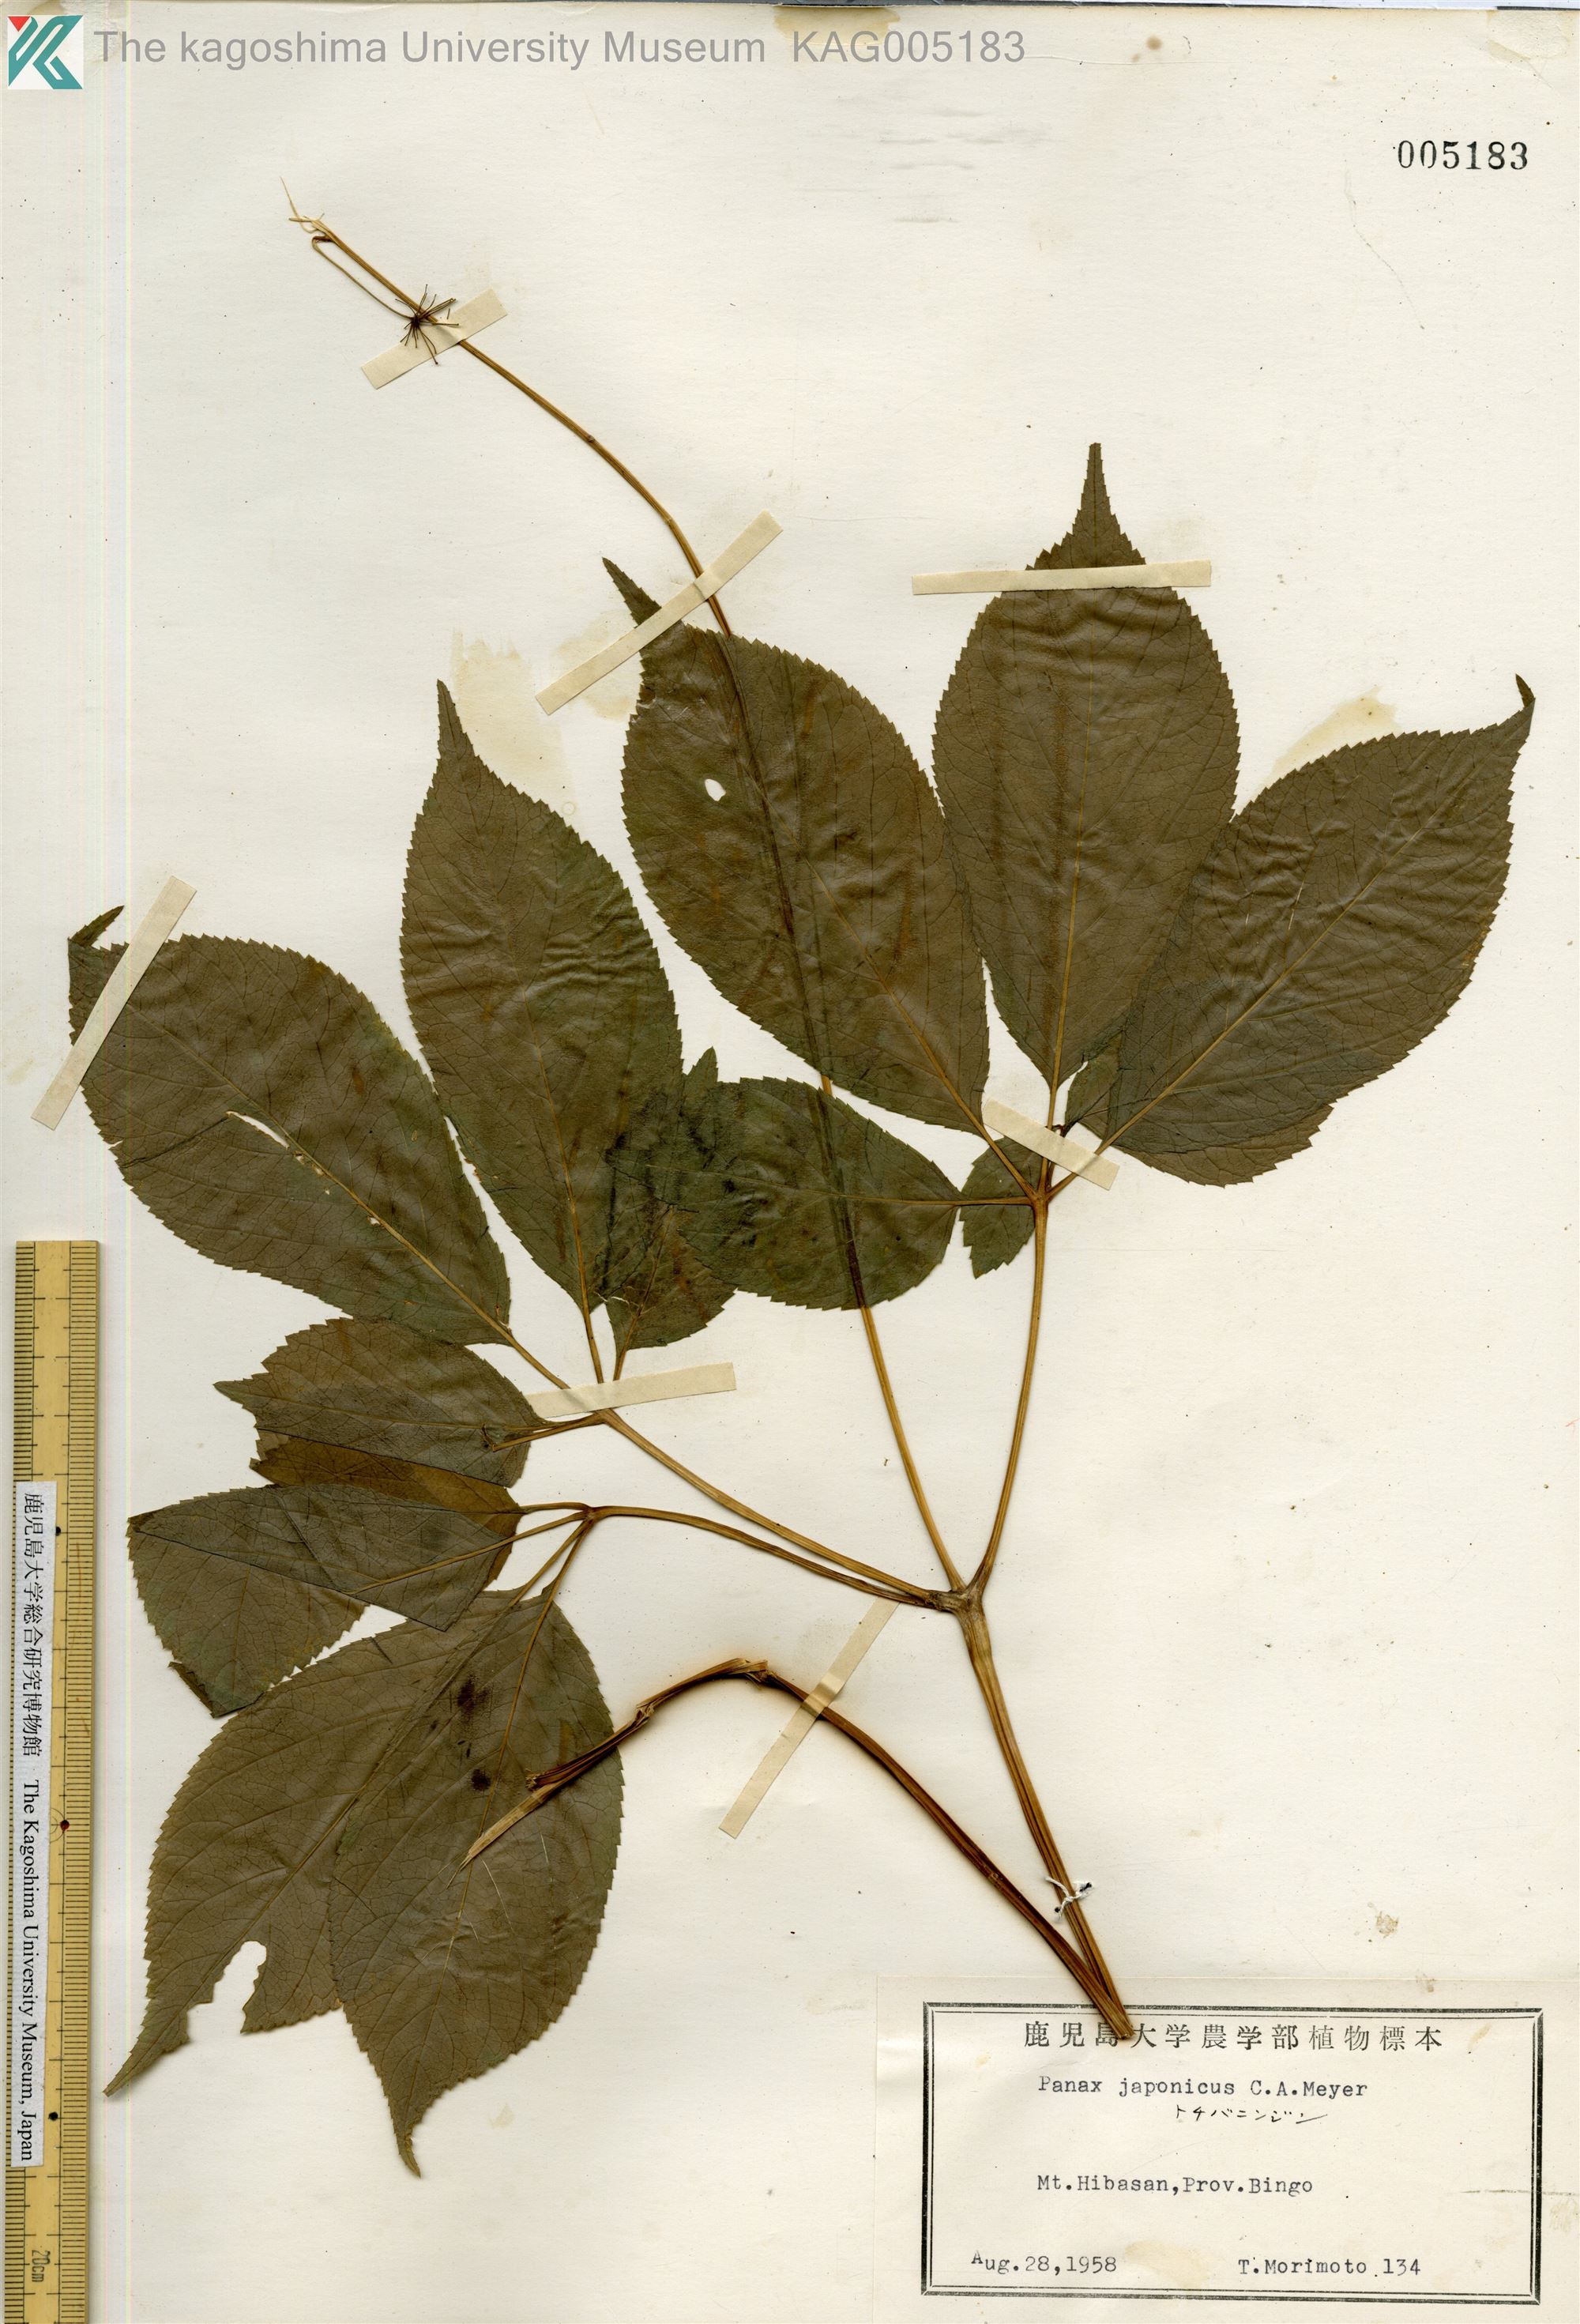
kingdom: Plantae
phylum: Tracheophyta
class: Magnoliopsida
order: Apiales
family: Araliaceae
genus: Panax
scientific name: Panax japonicus
